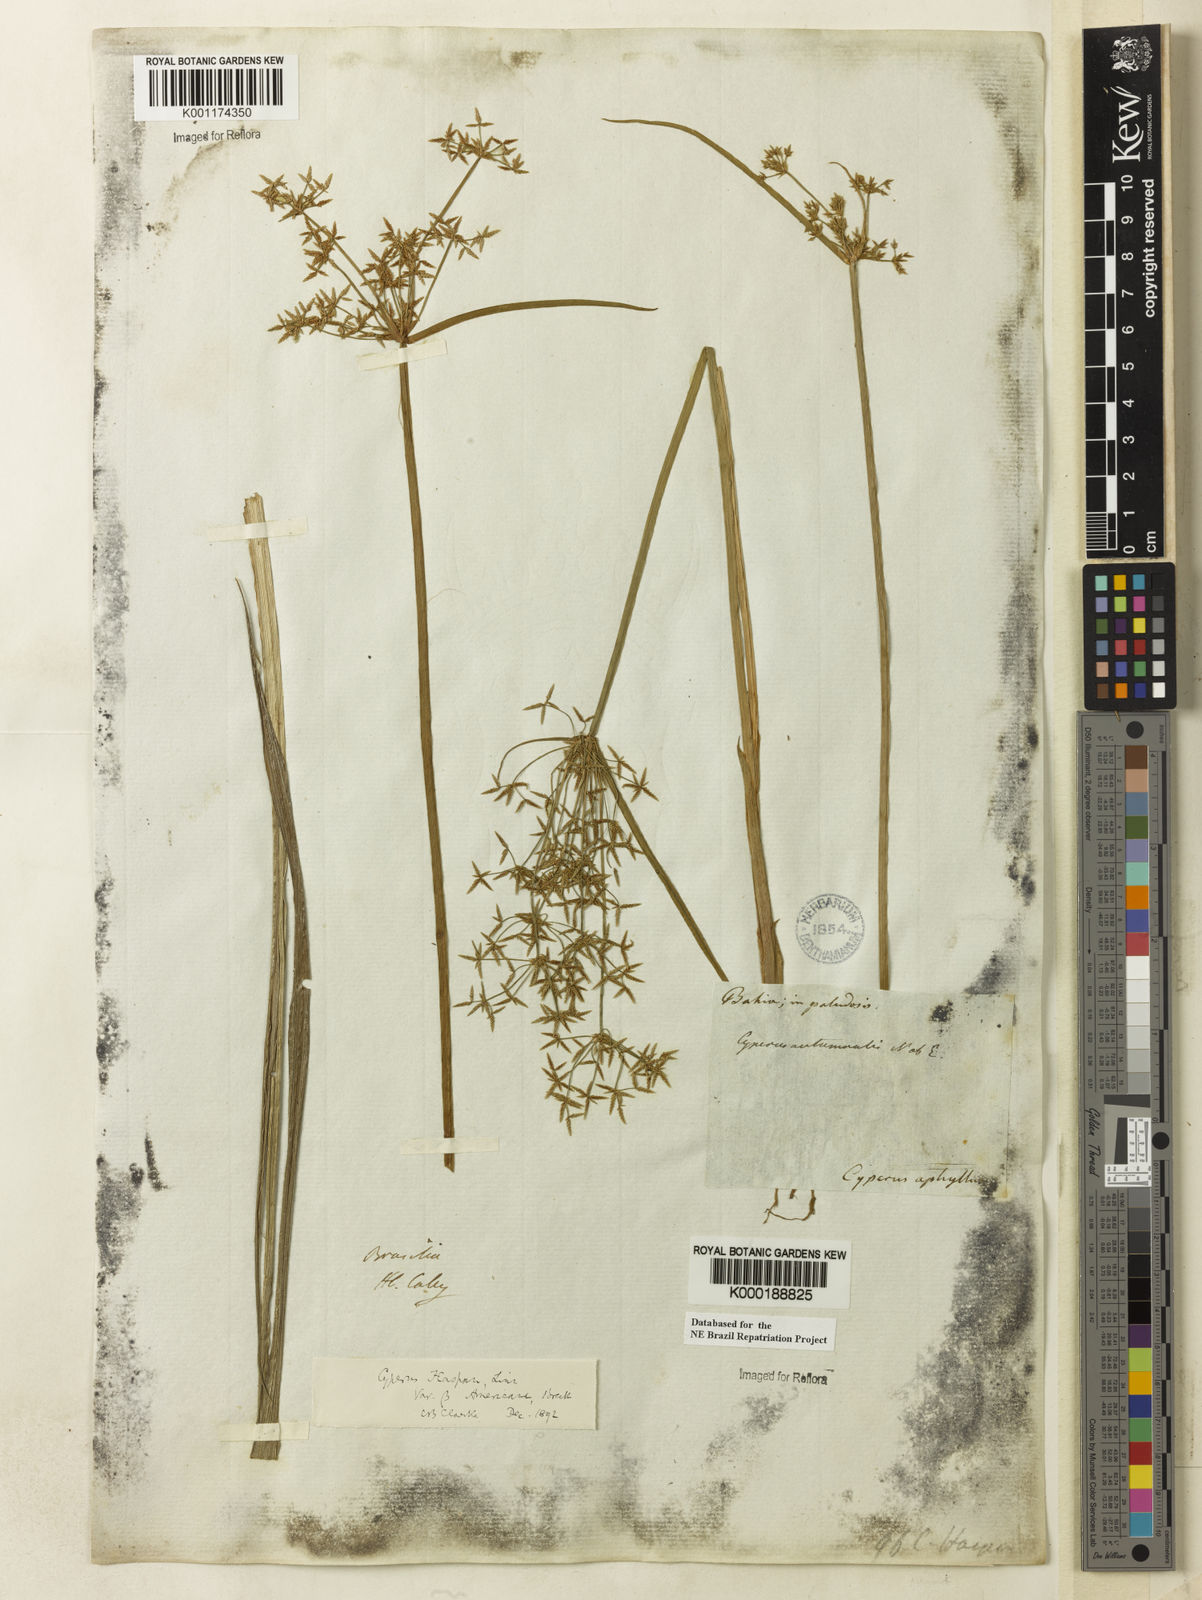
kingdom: Plantae
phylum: Tracheophyta
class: Liliopsida
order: Poales
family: Cyperaceae
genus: Cyperus
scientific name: Cyperus haspan
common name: Haspan flatsedge
